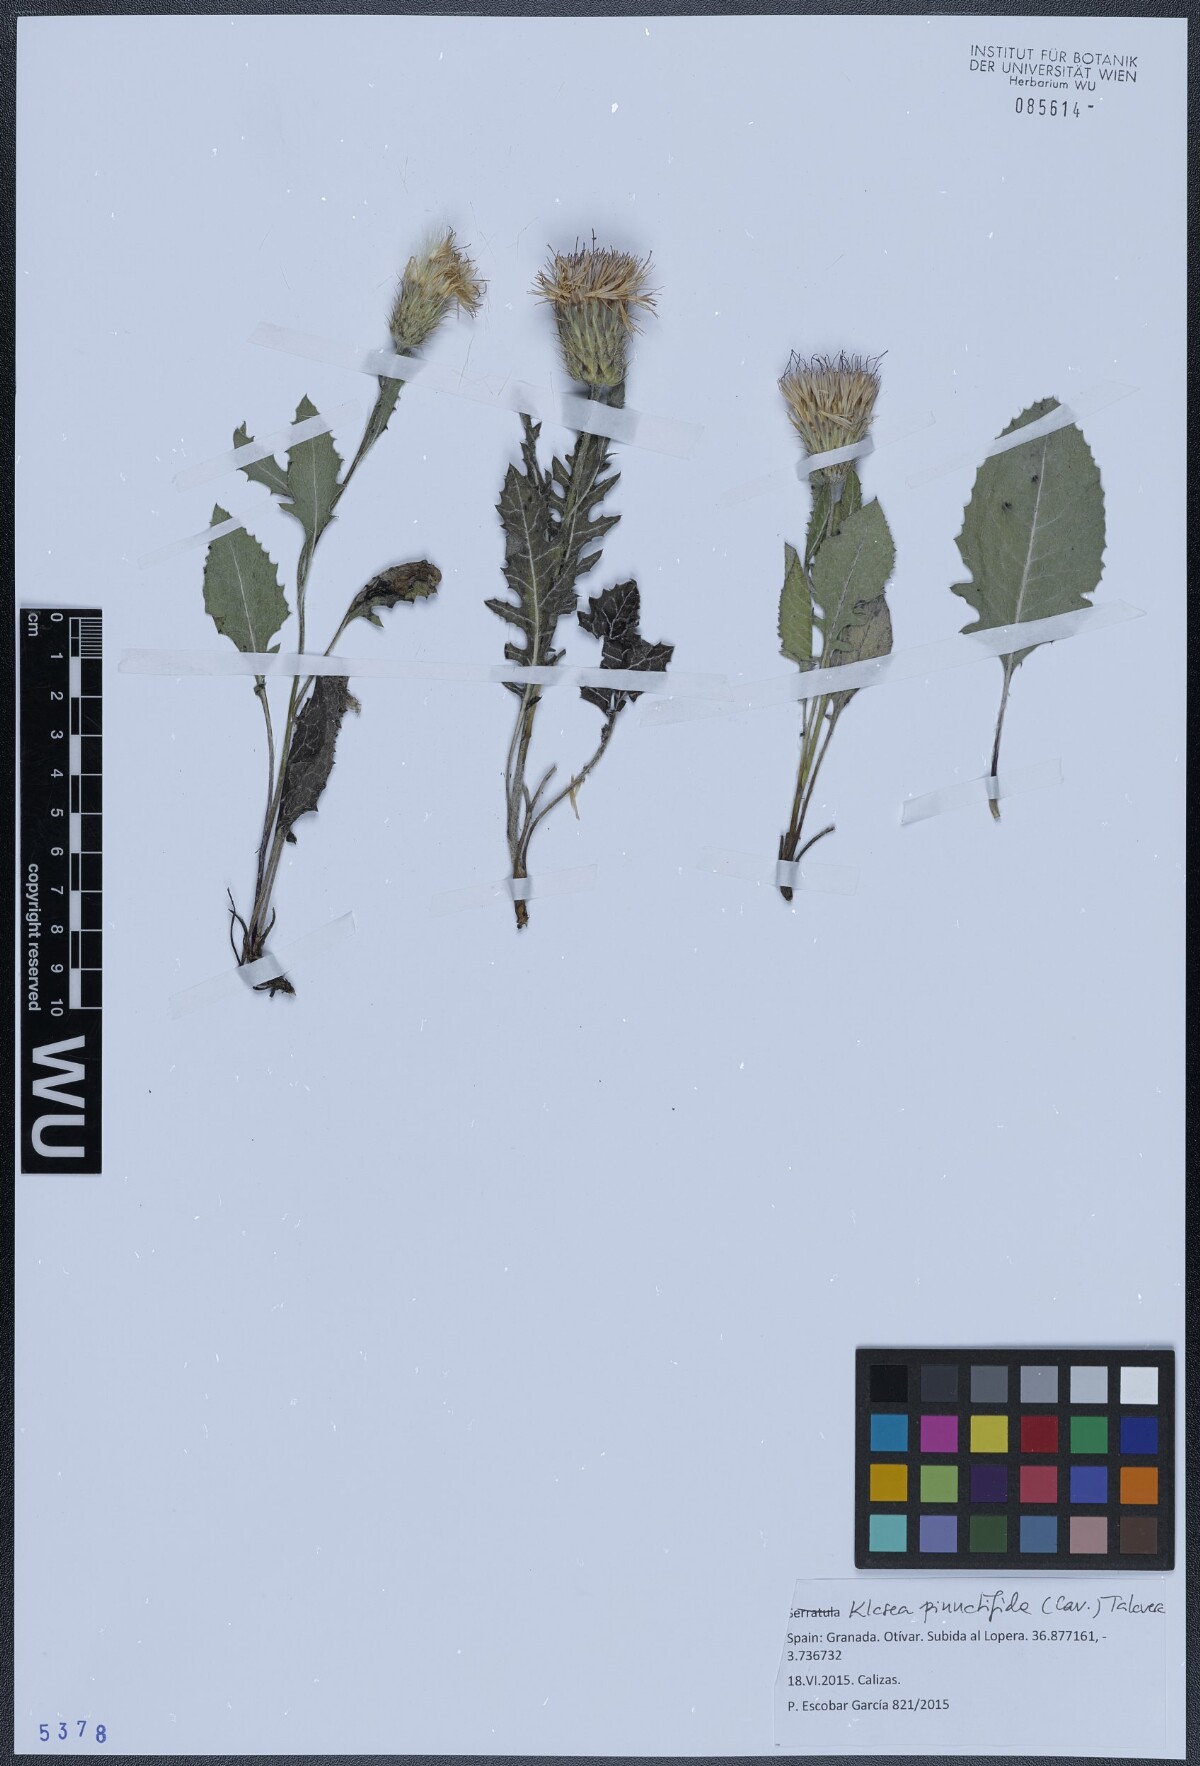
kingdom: Plantae
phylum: Tracheophyta
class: Magnoliopsida
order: Asterales
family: Asteraceae
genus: Klasea
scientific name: Klasea radiata
